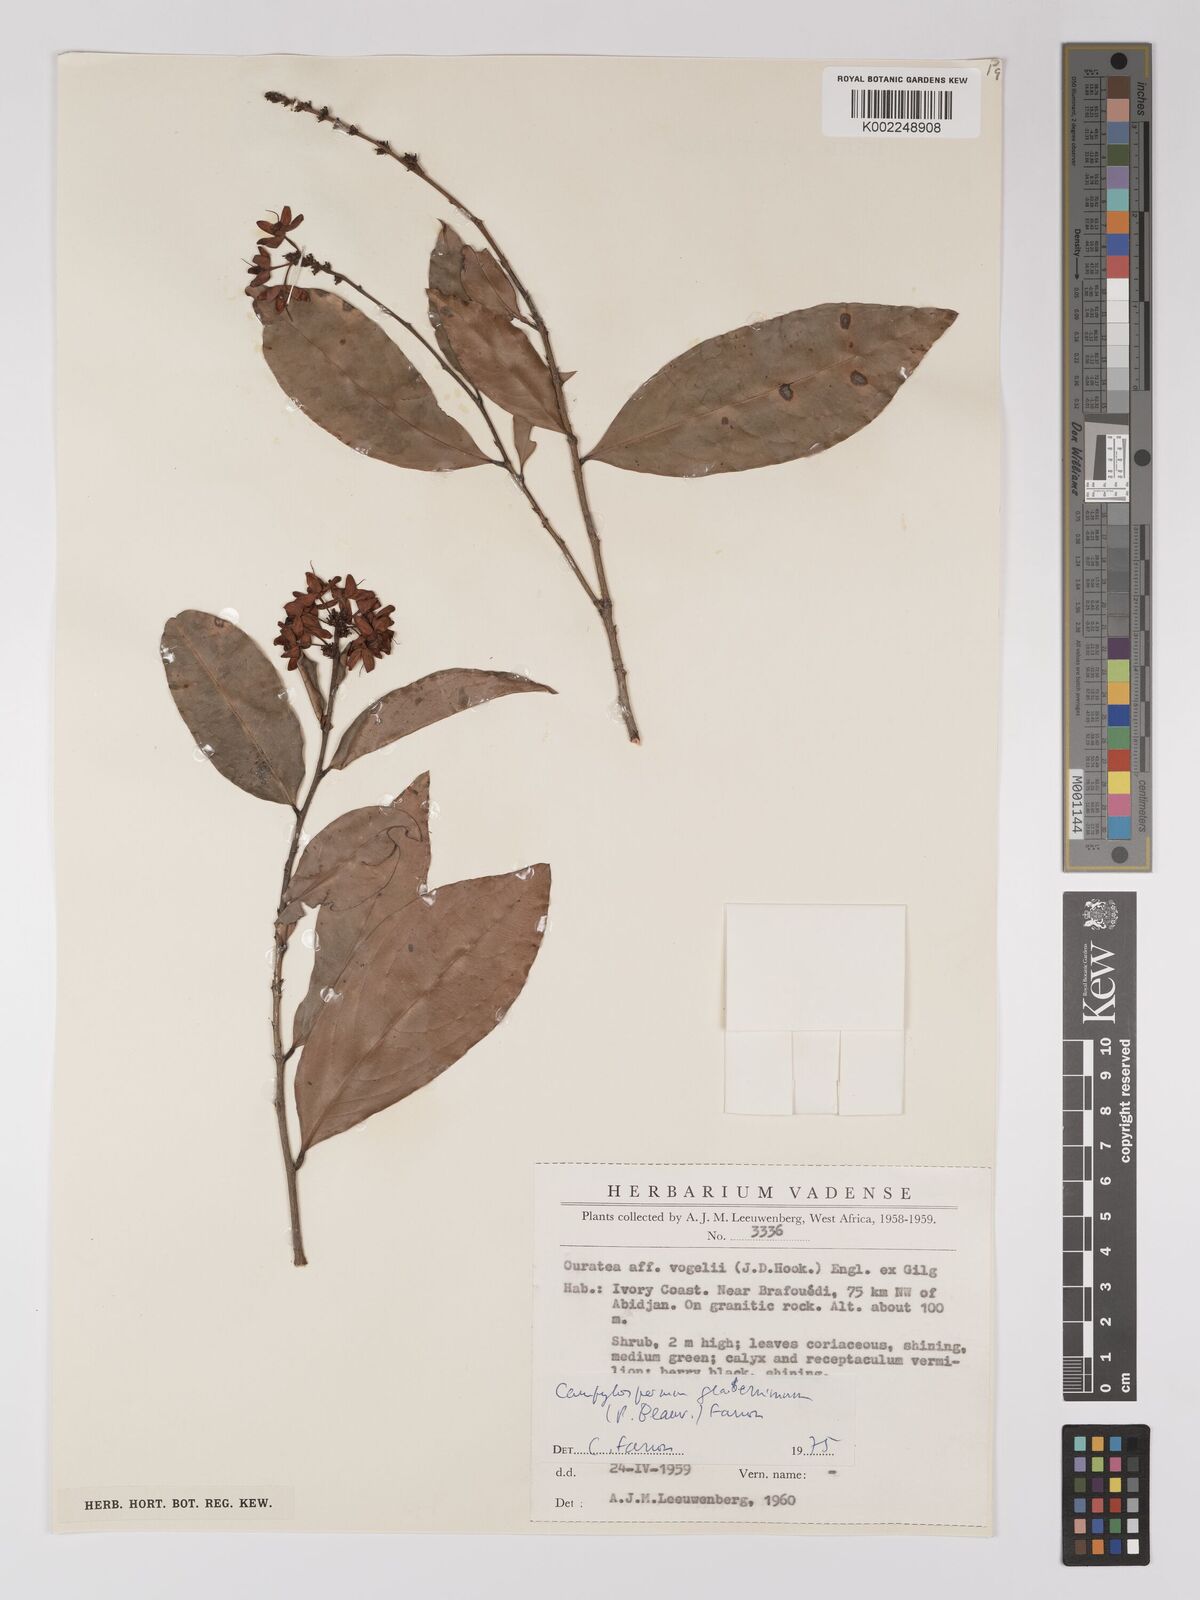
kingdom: Plantae
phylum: Tracheophyta
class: Magnoliopsida
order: Malpighiales
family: Ochnaceae
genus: Campylospermum
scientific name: Campylospermum glaberrimum
